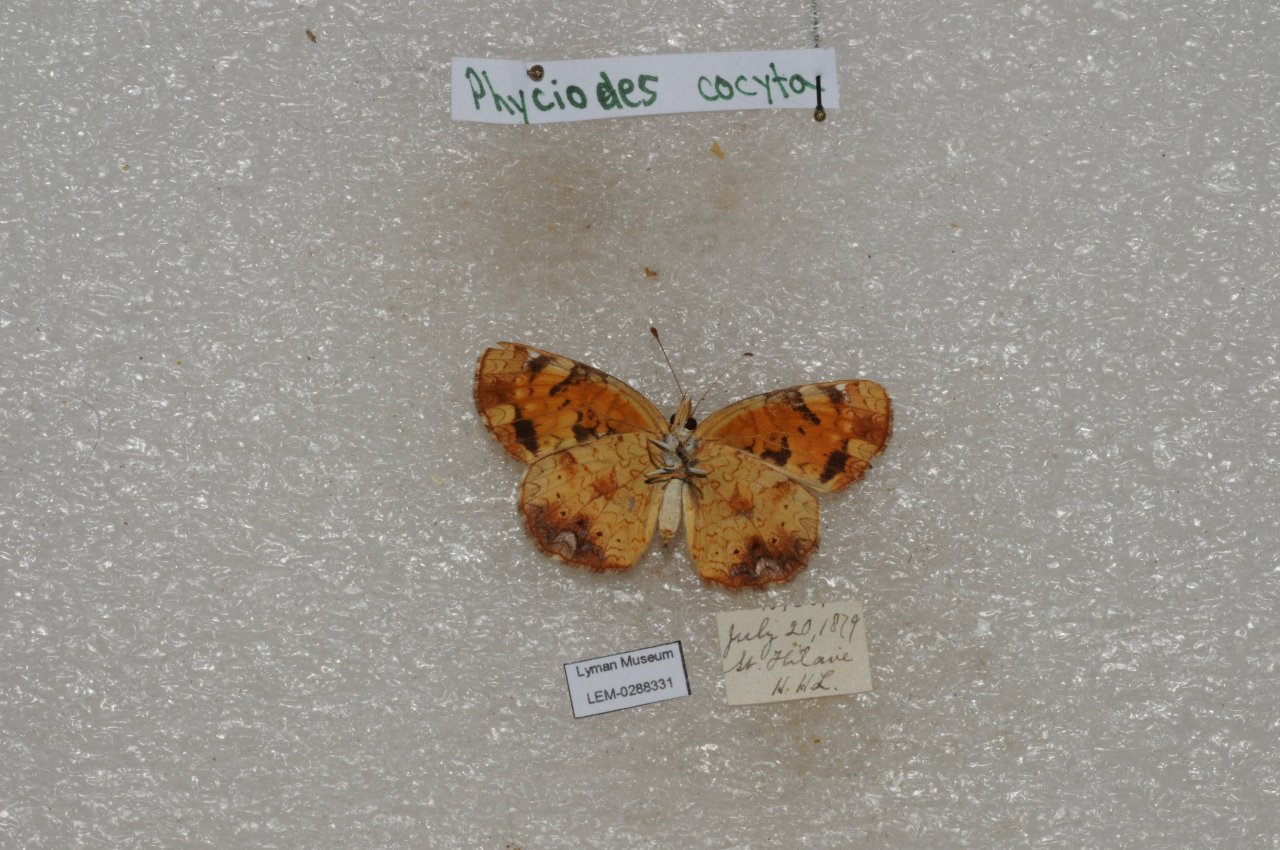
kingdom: Animalia
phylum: Arthropoda
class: Insecta
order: Lepidoptera
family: Nymphalidae
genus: Phyciodes
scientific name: Phyciodes tharos
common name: Northern Crescent
